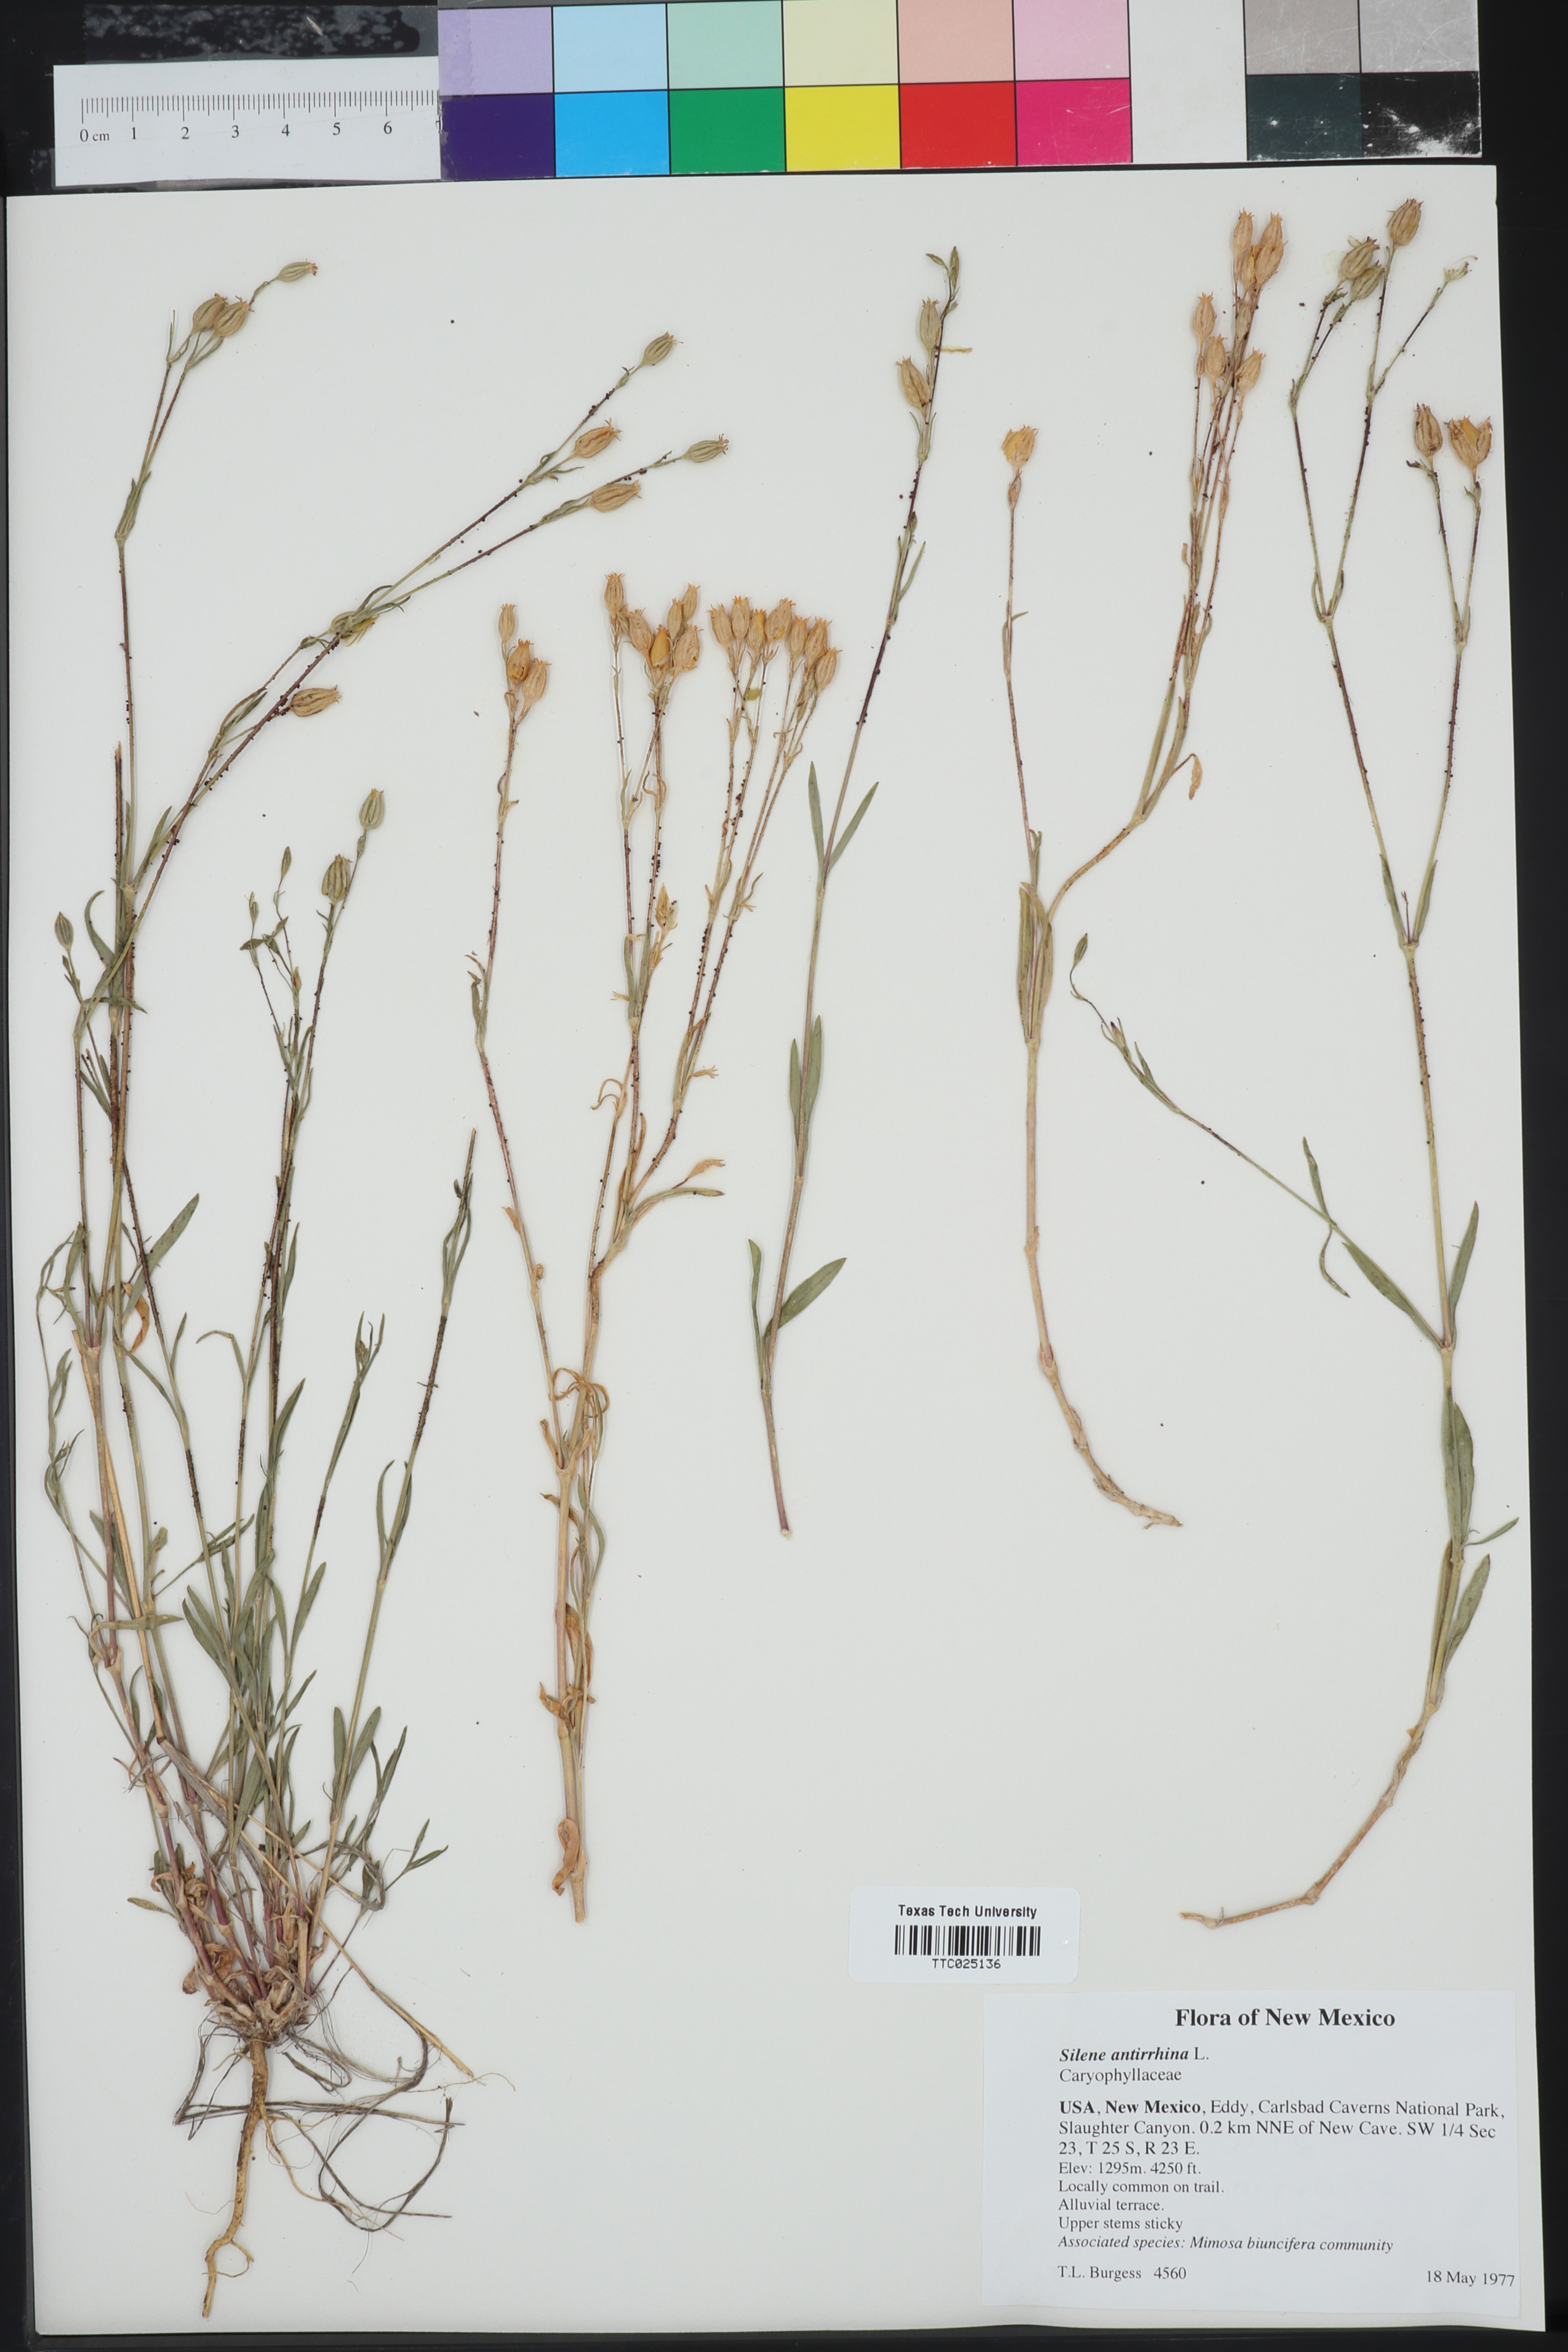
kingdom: Plantae
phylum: Tracheophyta
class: Magnoliopsida
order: Caryophyllales
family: Caryophyllaceae
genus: Silene
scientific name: Silene antirrhina
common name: Sleepy catchfly
